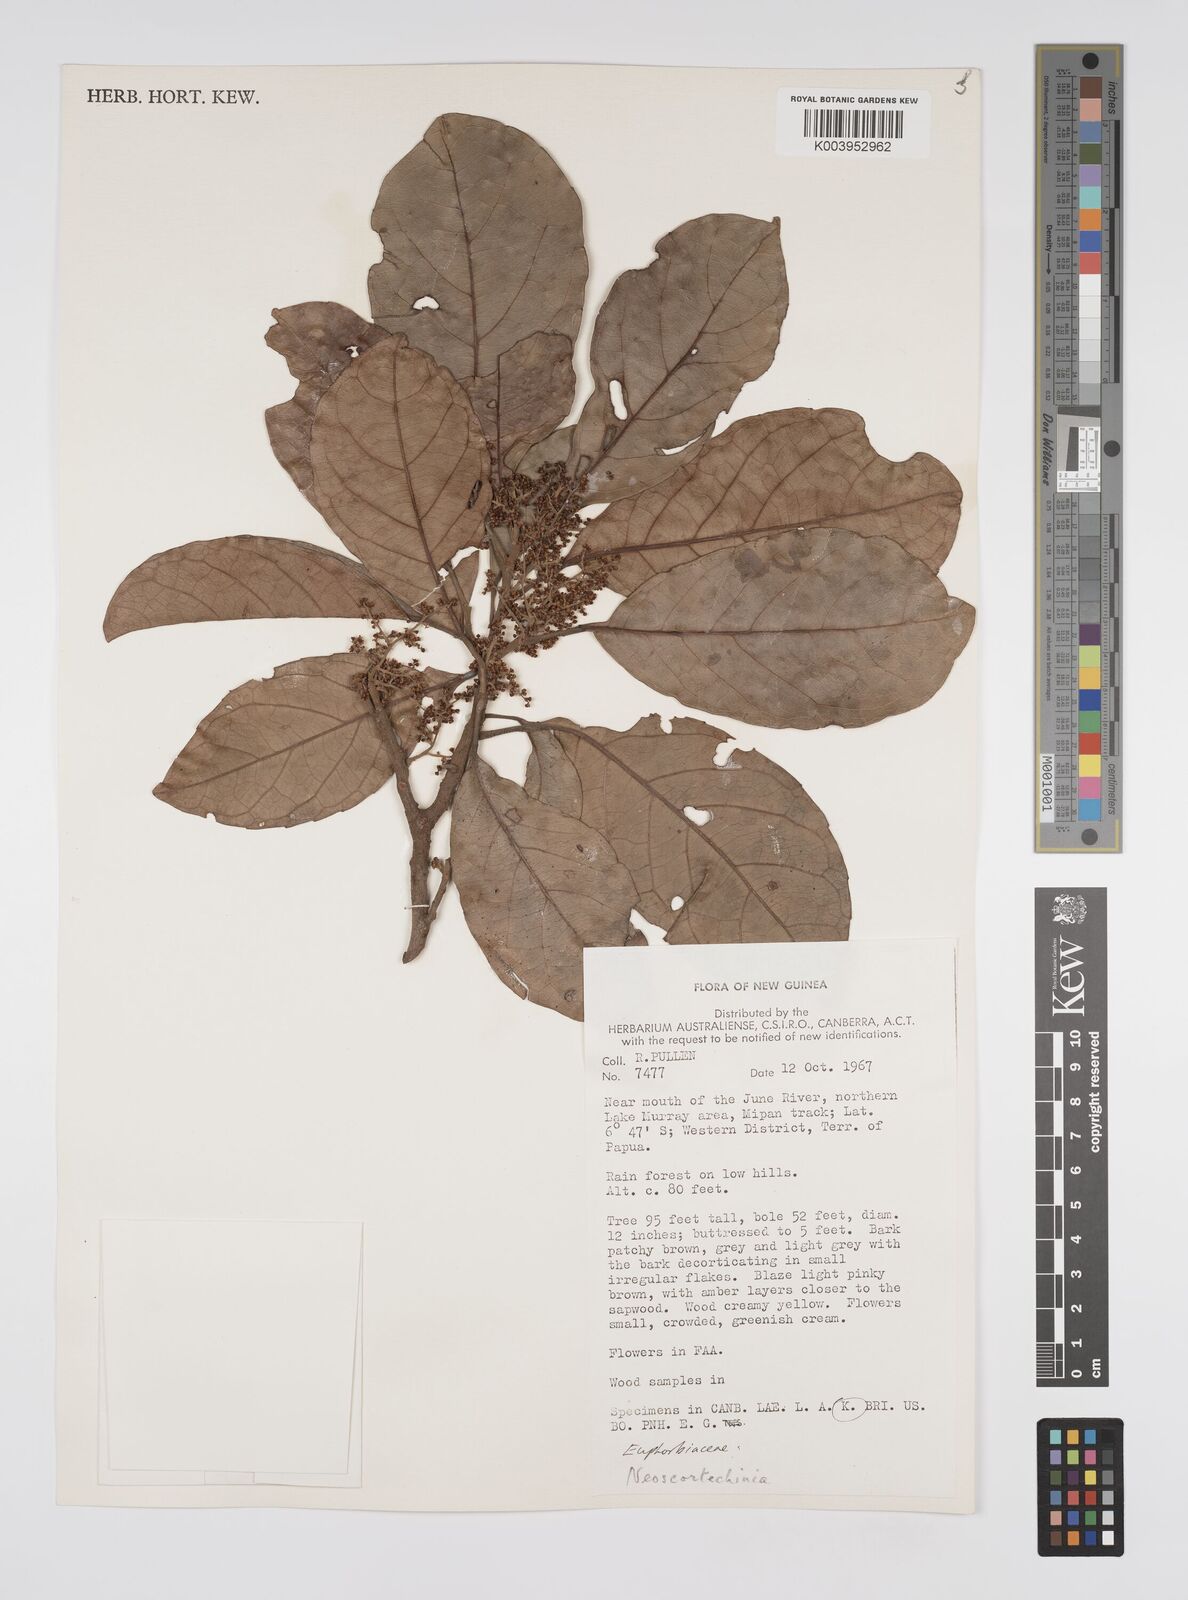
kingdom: Plantae
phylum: Tracheophyta
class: Magnoliopsida
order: Malpighiales
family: Euphorbiaceae
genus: Neoscortechinia
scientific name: Neoscortechinia forbesii
